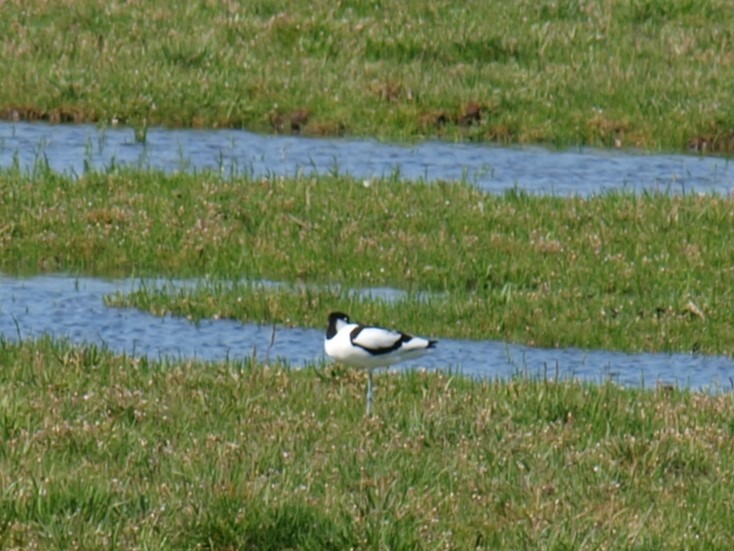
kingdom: Animalia
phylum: Chordata
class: Aves
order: Charadriiformes
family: Recurvirostridae
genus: Recurvirostra
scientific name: Recurvirostra avosetta
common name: Klyde
